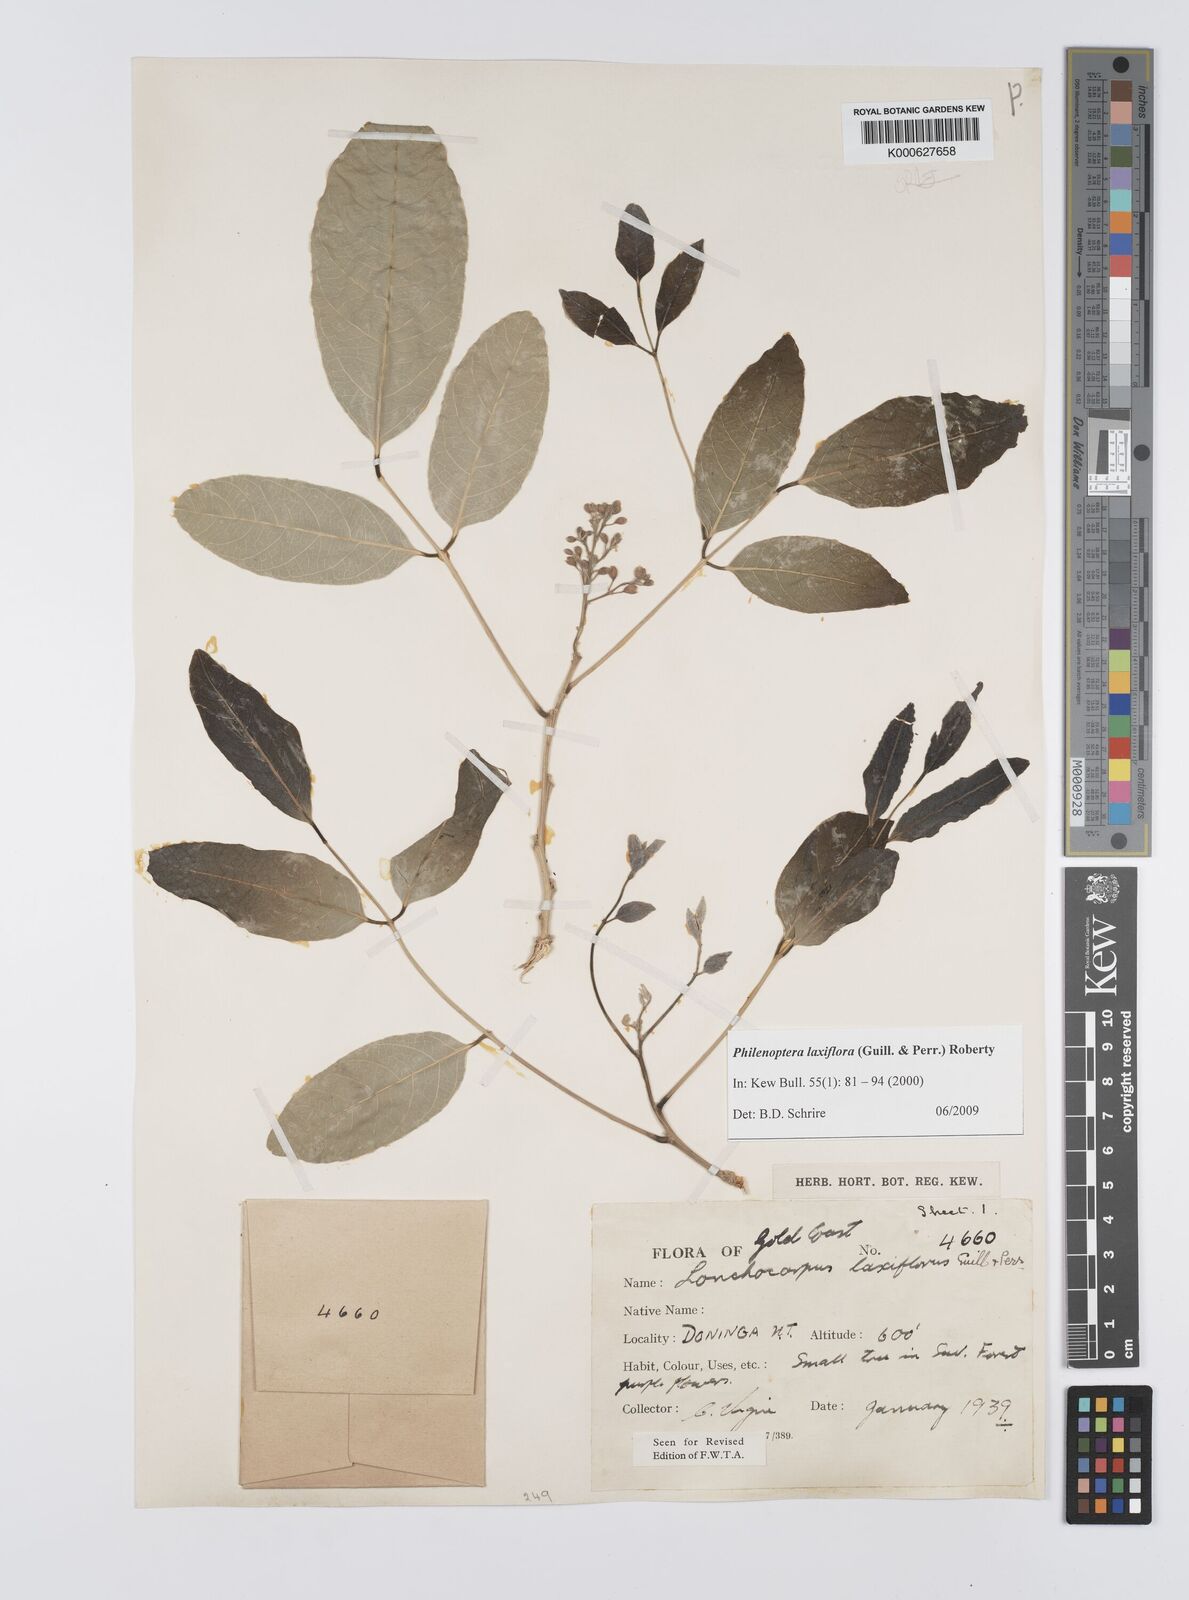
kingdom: Plantae
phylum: Tracheophyta
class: Magnoliopsida
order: Fabales
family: Fabaceae
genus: Philenoptera
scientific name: Philenoptera laxiflora
